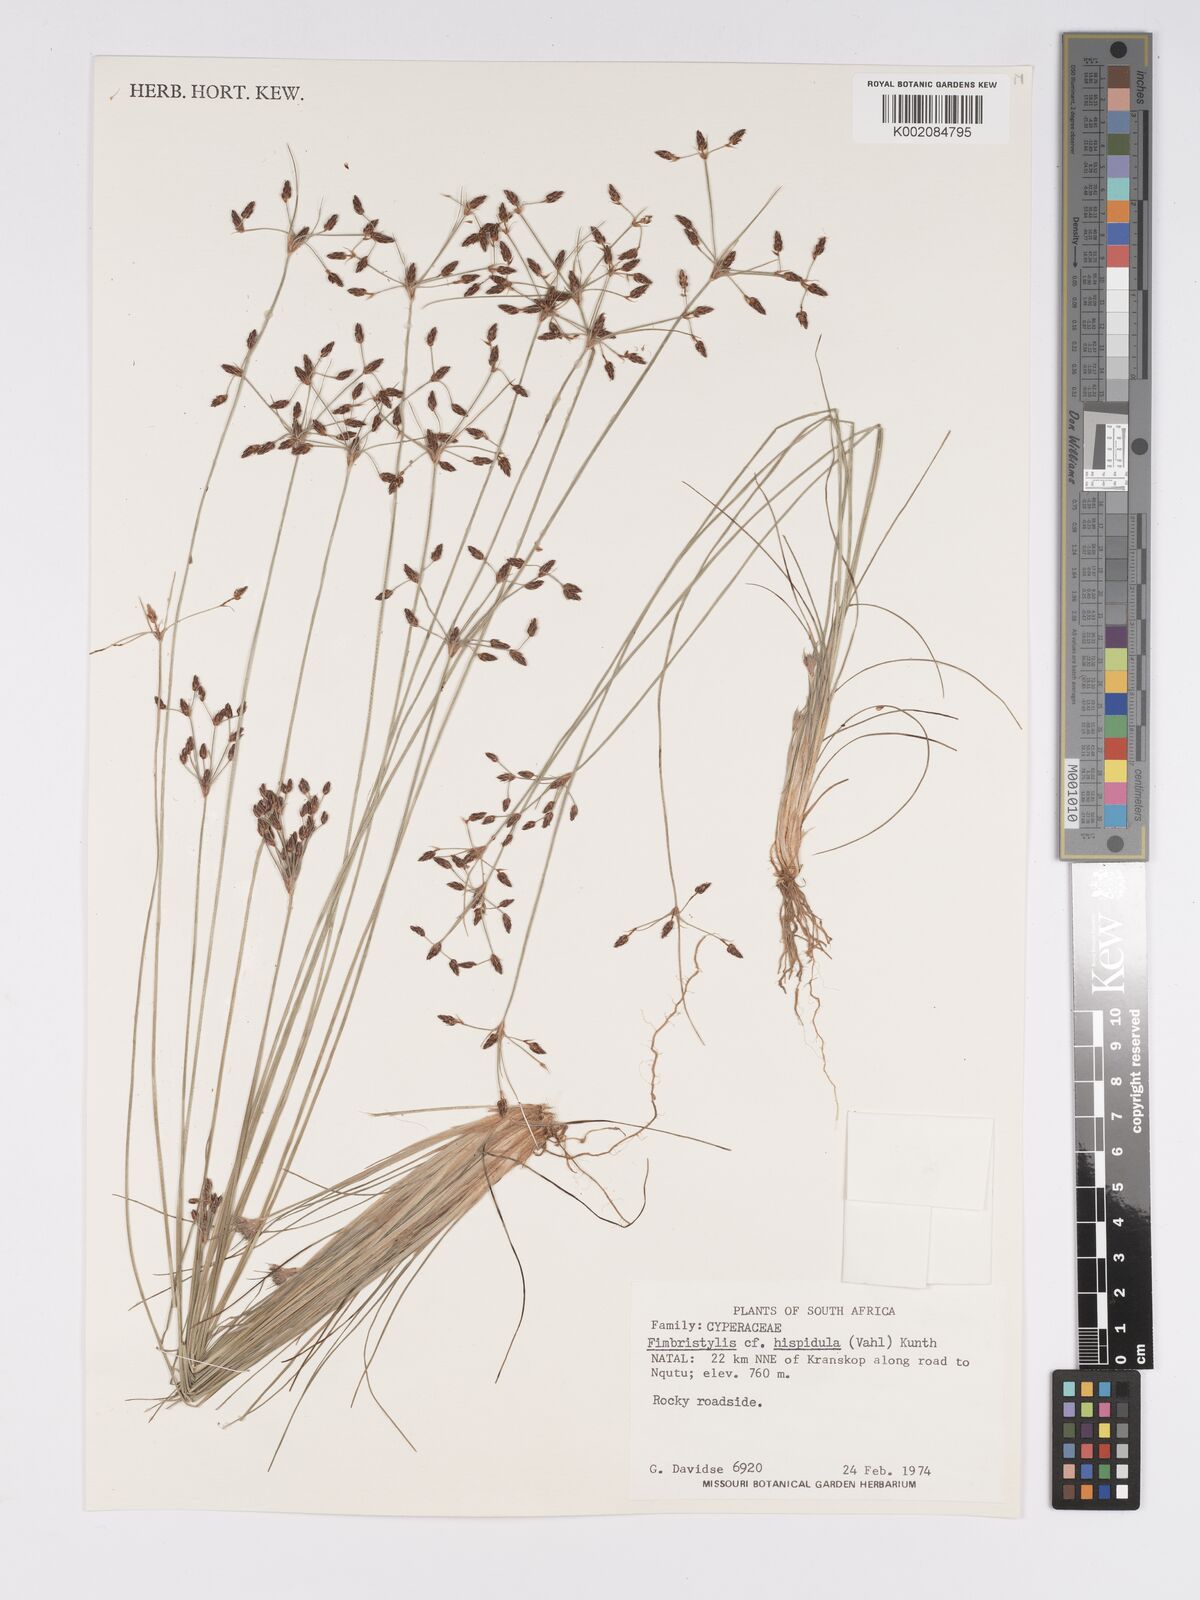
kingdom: Plantae
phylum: Tracheophyta
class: Liliopsida
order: Poales
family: Cyperaceae
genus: Bulbostylis
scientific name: Bulbostylis
